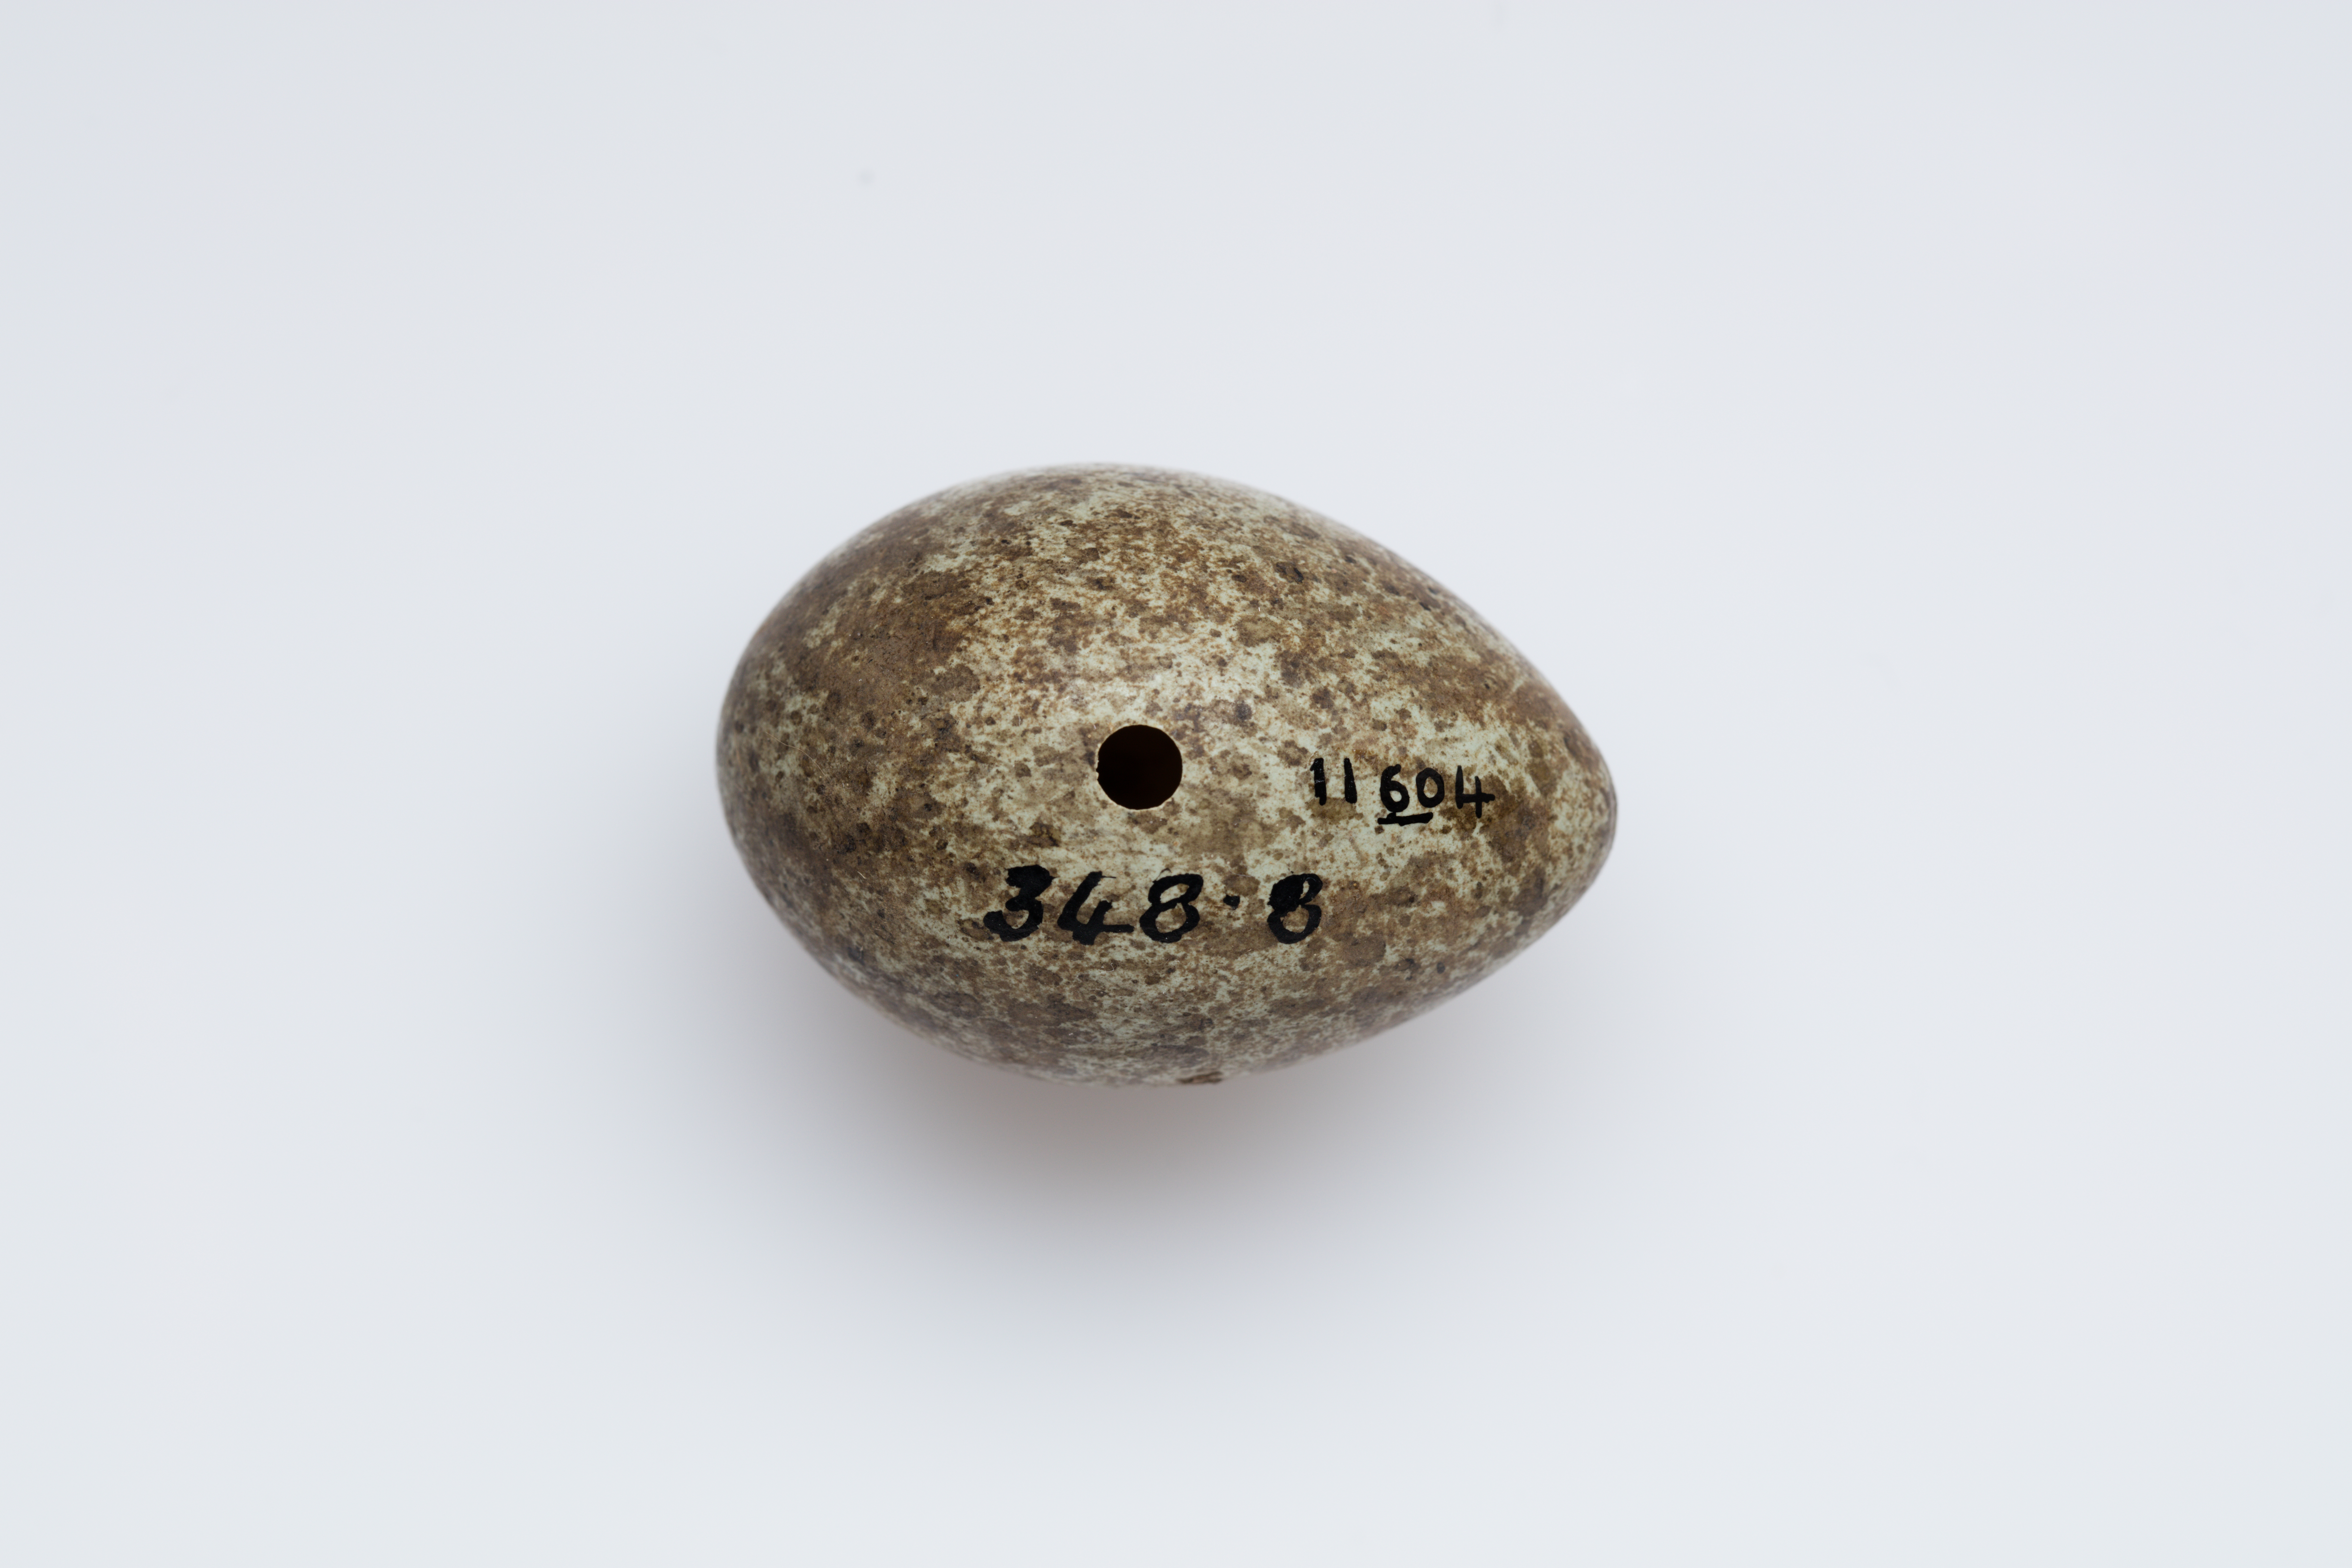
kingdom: Animalia
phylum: Chordata
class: Aves
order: Passeriformes
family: Corvidae
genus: Corvus
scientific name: Corvus cornix
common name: Hooded crow
